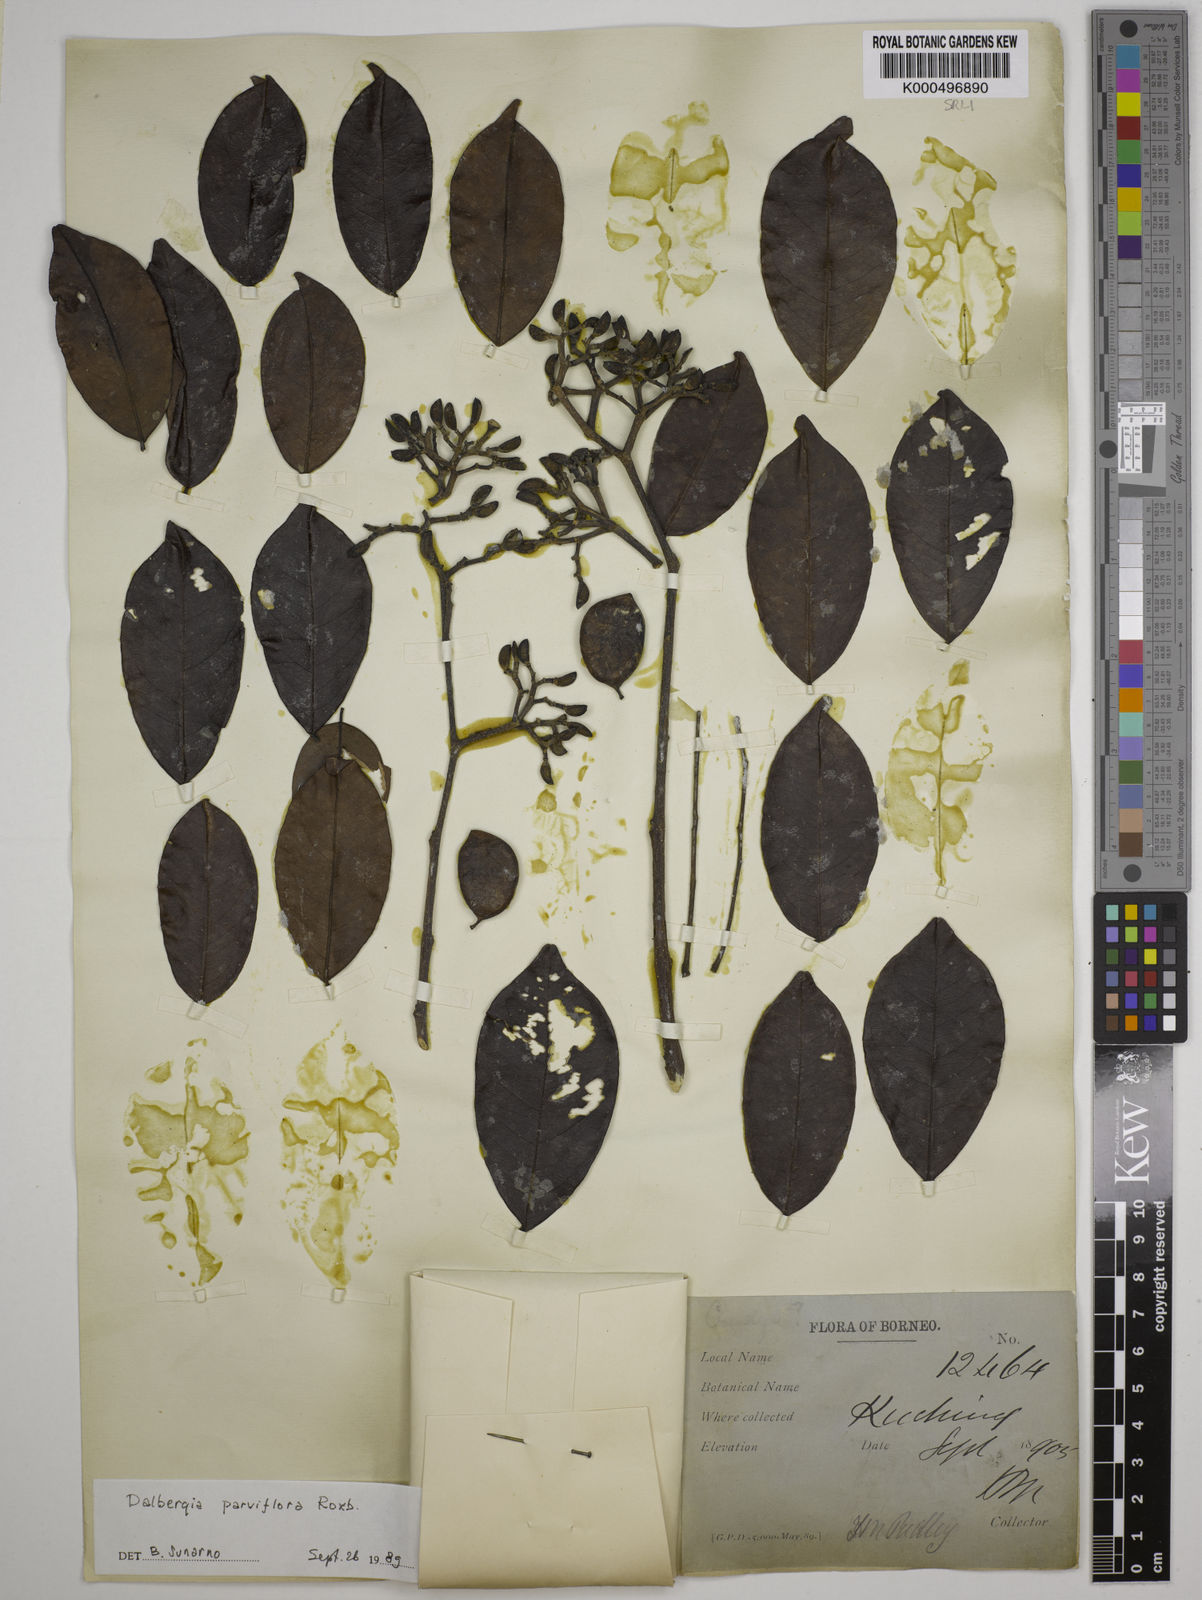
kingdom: Plantae
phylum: Tracheophyta
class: Magnoliopsida
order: Fabales
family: Fabaceae
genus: Dalbergia
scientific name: Dalbergia parviflora
